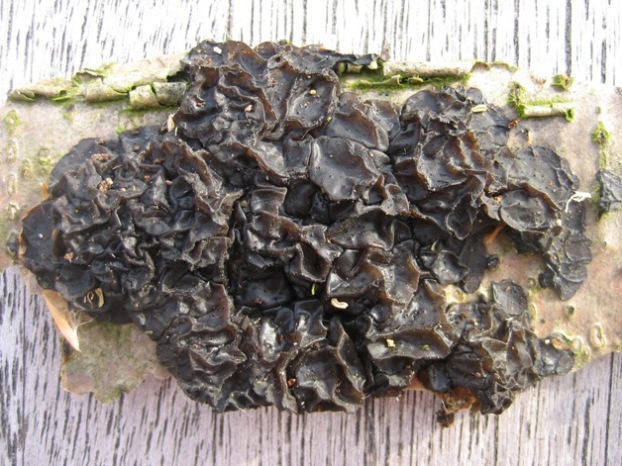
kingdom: Fungi
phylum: Basidiomycota
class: Agaricomycetes
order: Auriculariales
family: Auriculariaceae
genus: Exidia
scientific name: Exidia nigricans
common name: almindelig bævretop
